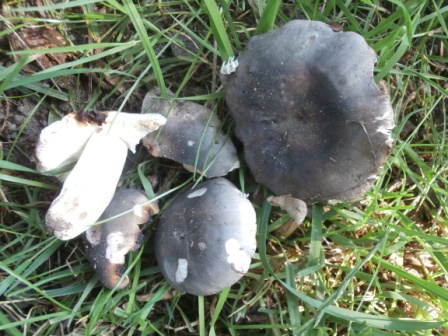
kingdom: Fungi
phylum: Basidiomycota
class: Agaricomycetes
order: Russulales
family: Russulaceae
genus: Russula
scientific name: Russula grisea
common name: grålig skørhat
